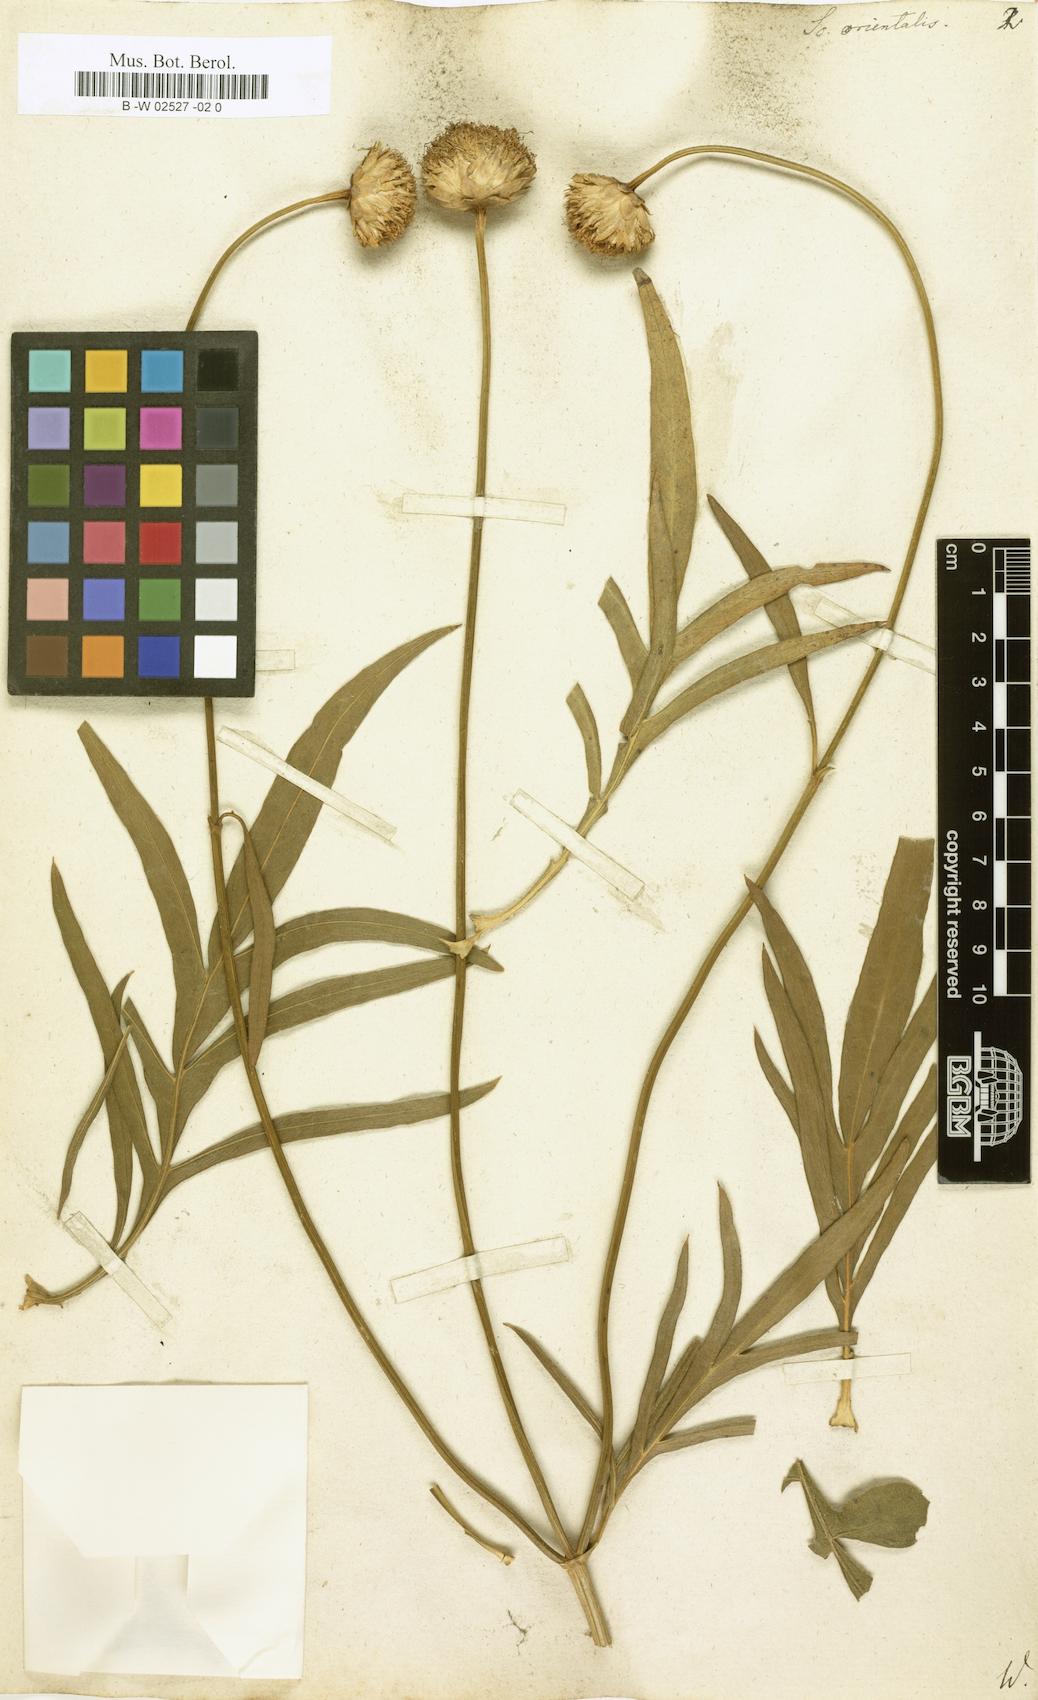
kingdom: Plantae
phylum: Tracheophyta
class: Magnoliopsida
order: Dipsacales
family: Caprifoliaceae
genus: Knautia
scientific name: Knautia orientalis
